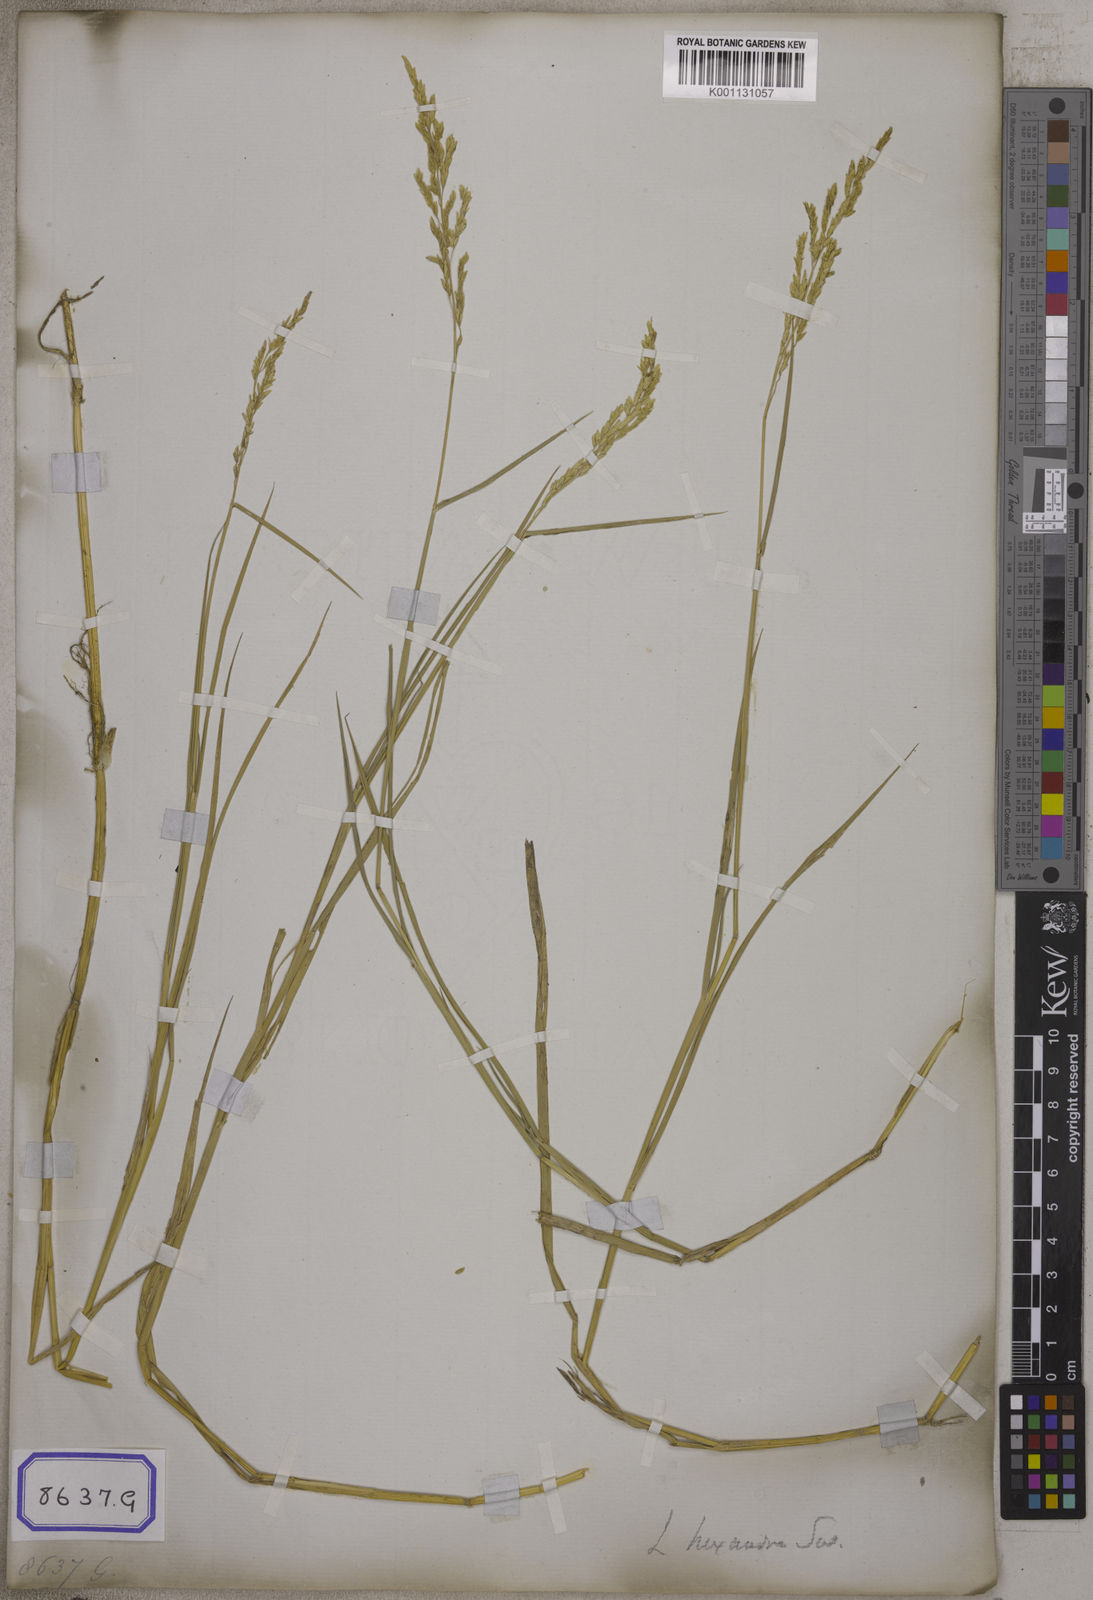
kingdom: Plantae
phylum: Tracheophyta
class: Liliopsida
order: Poales
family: Poaceae
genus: Leersia
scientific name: Leersia oryzoides
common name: Cut-grass
